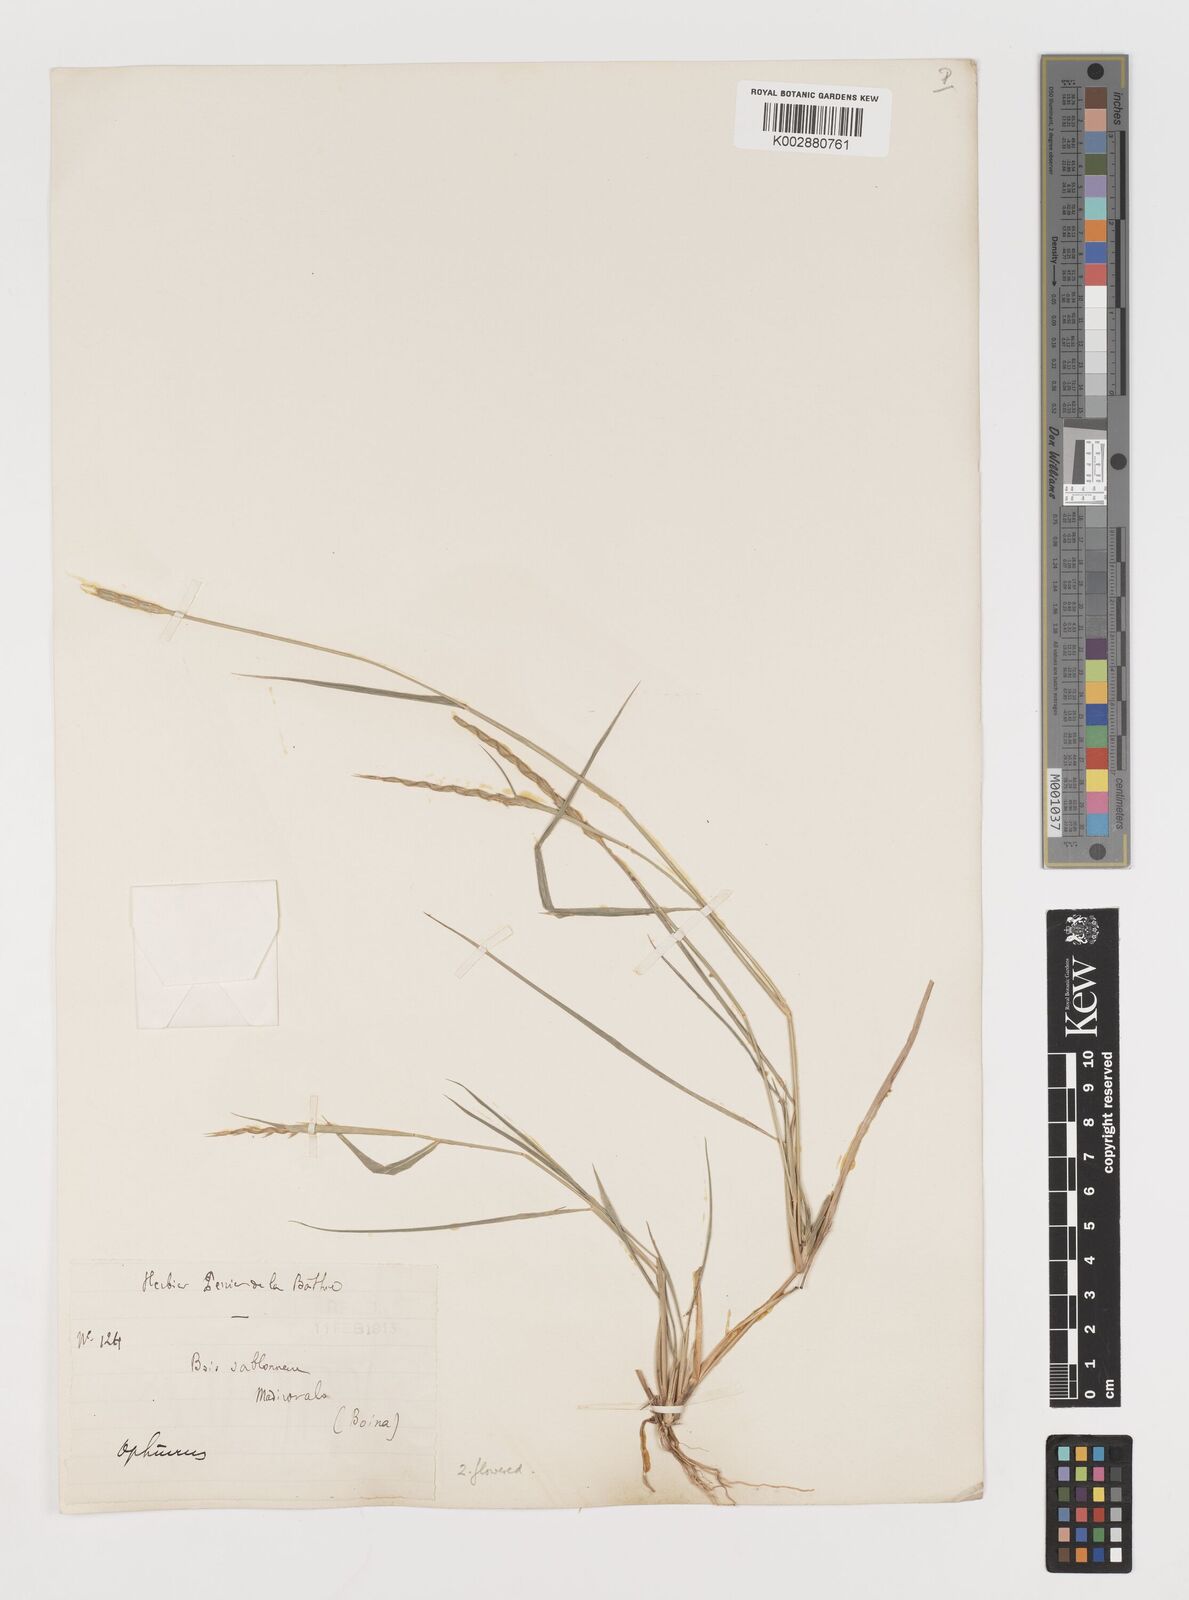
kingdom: Plantae
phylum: Tracheophyta
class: Liliopsida
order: Poales
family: Poaceae
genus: Lepturus
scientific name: Lepturus radicans
